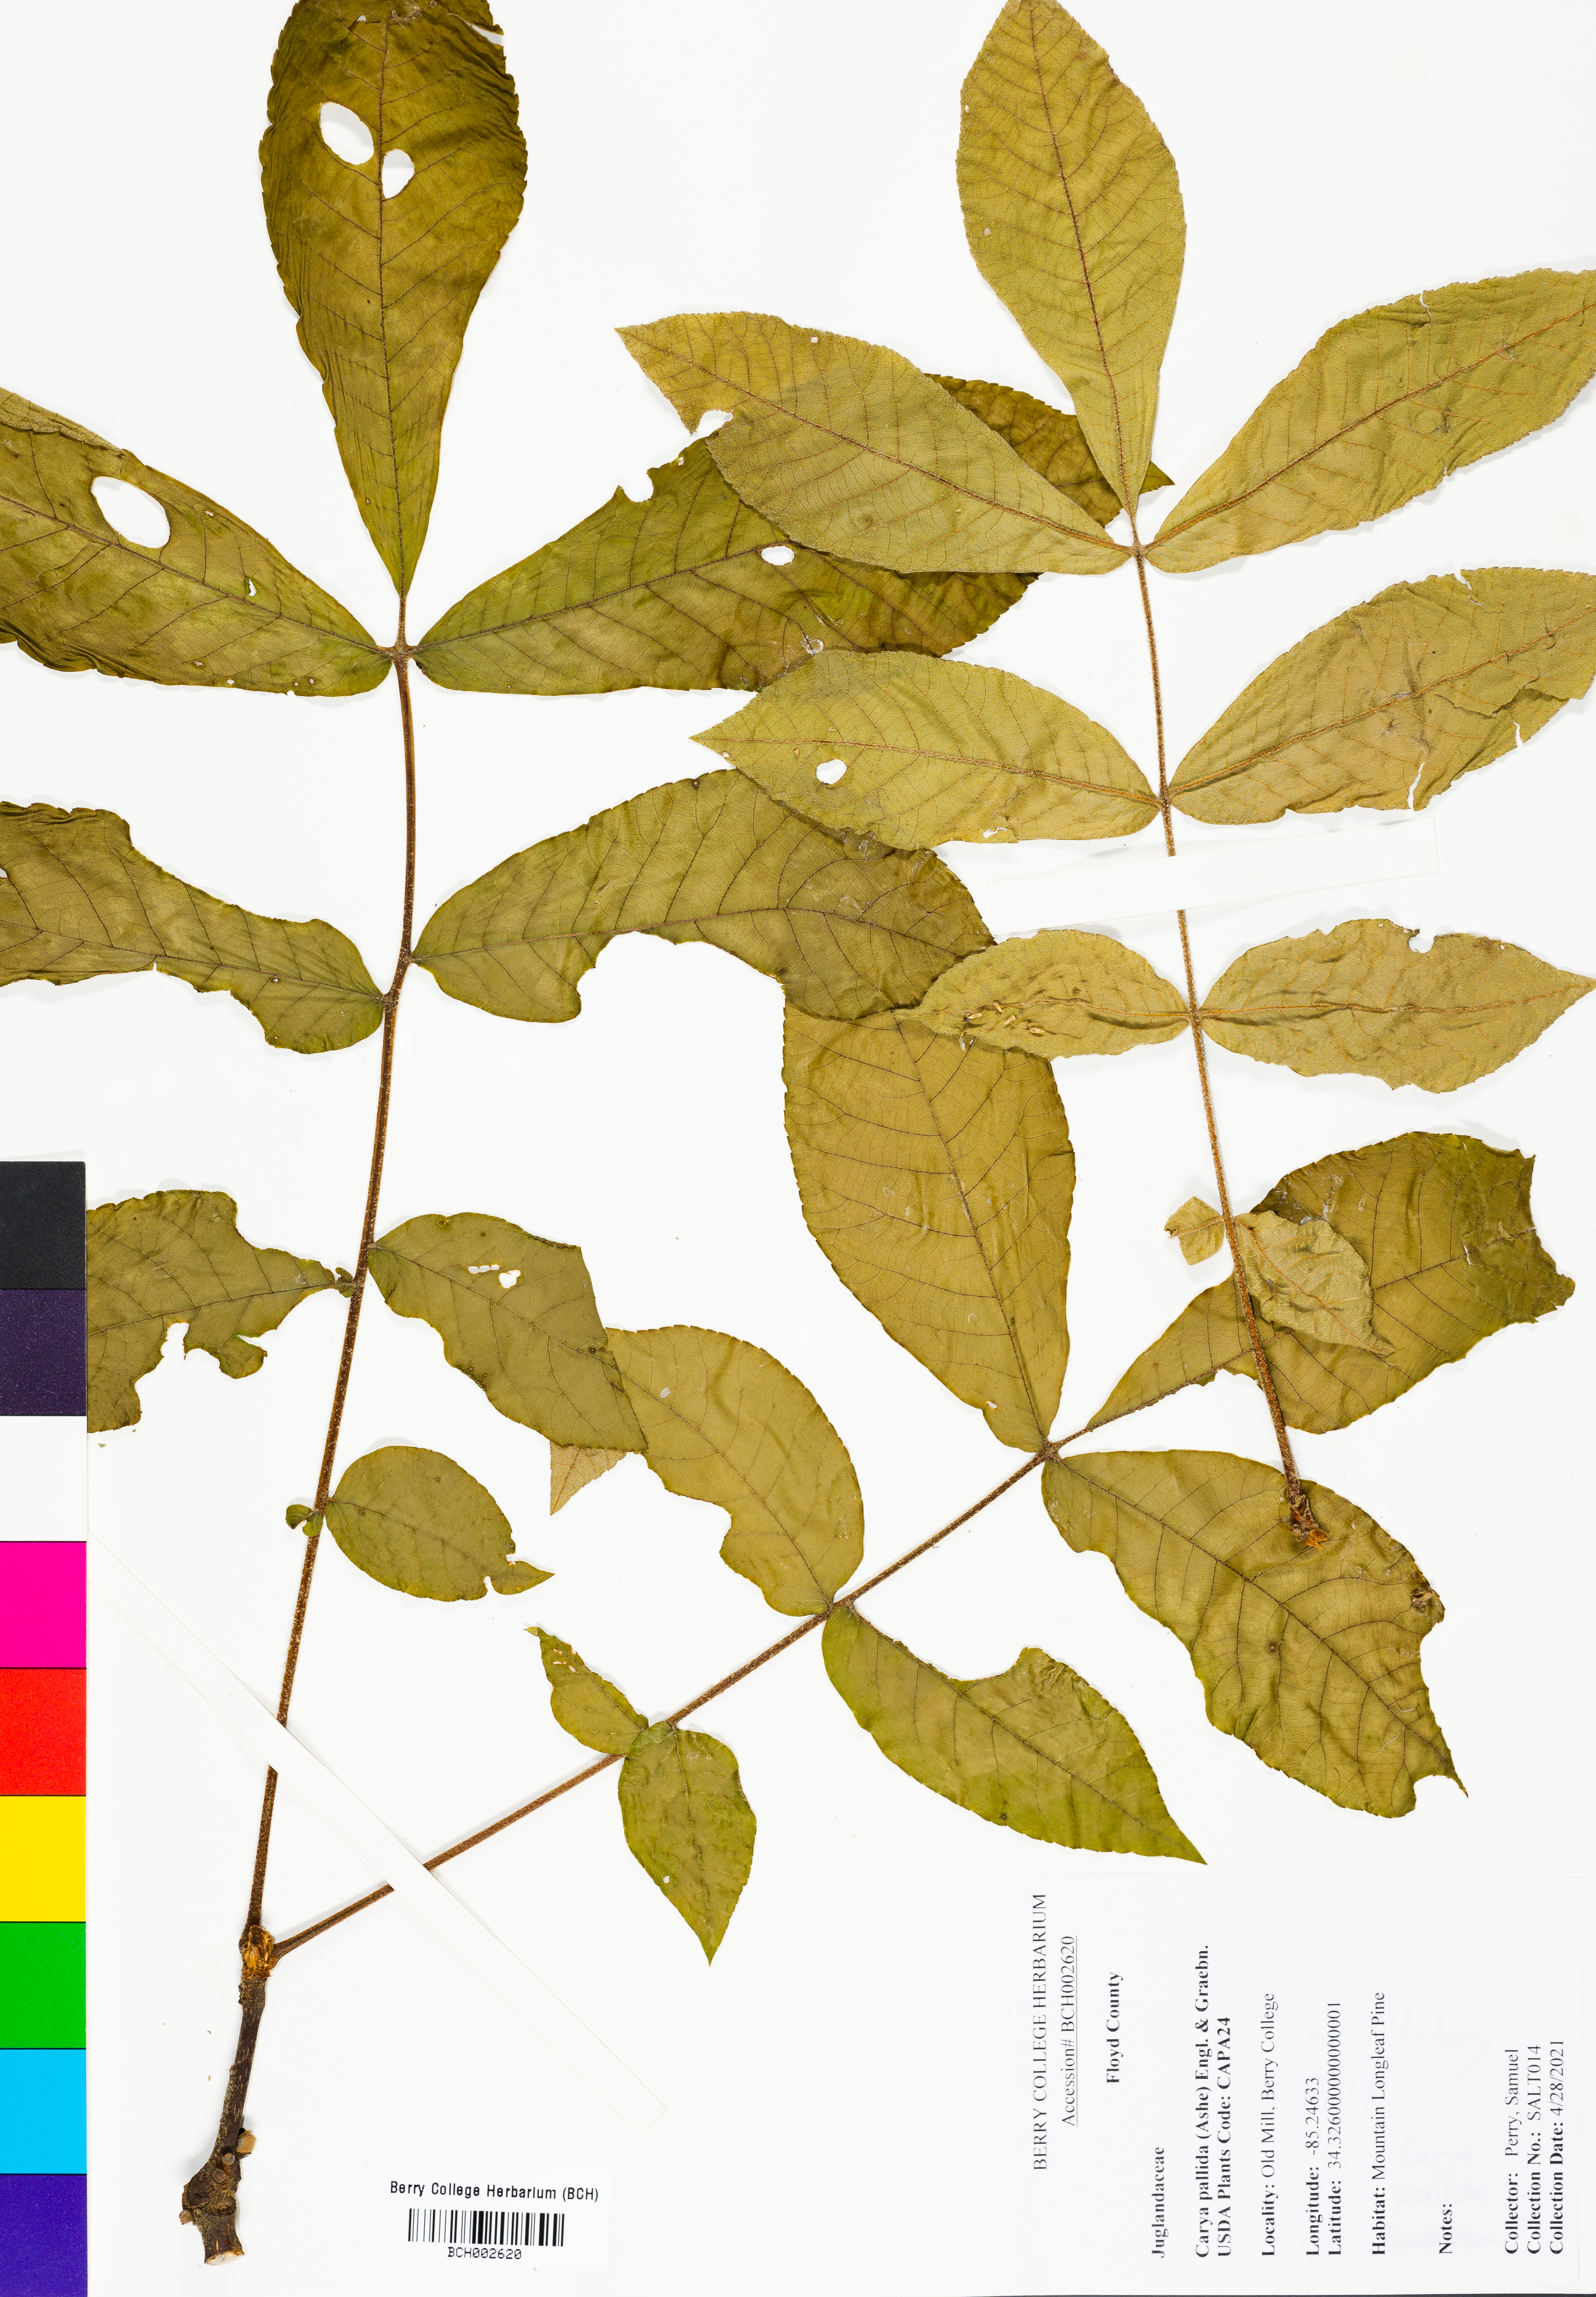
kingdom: Plantae
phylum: Tracheophyta
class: Magnoliopsida
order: Fagales
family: Juglandaceae
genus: Carya
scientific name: Carya pallida
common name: Sand hickory
